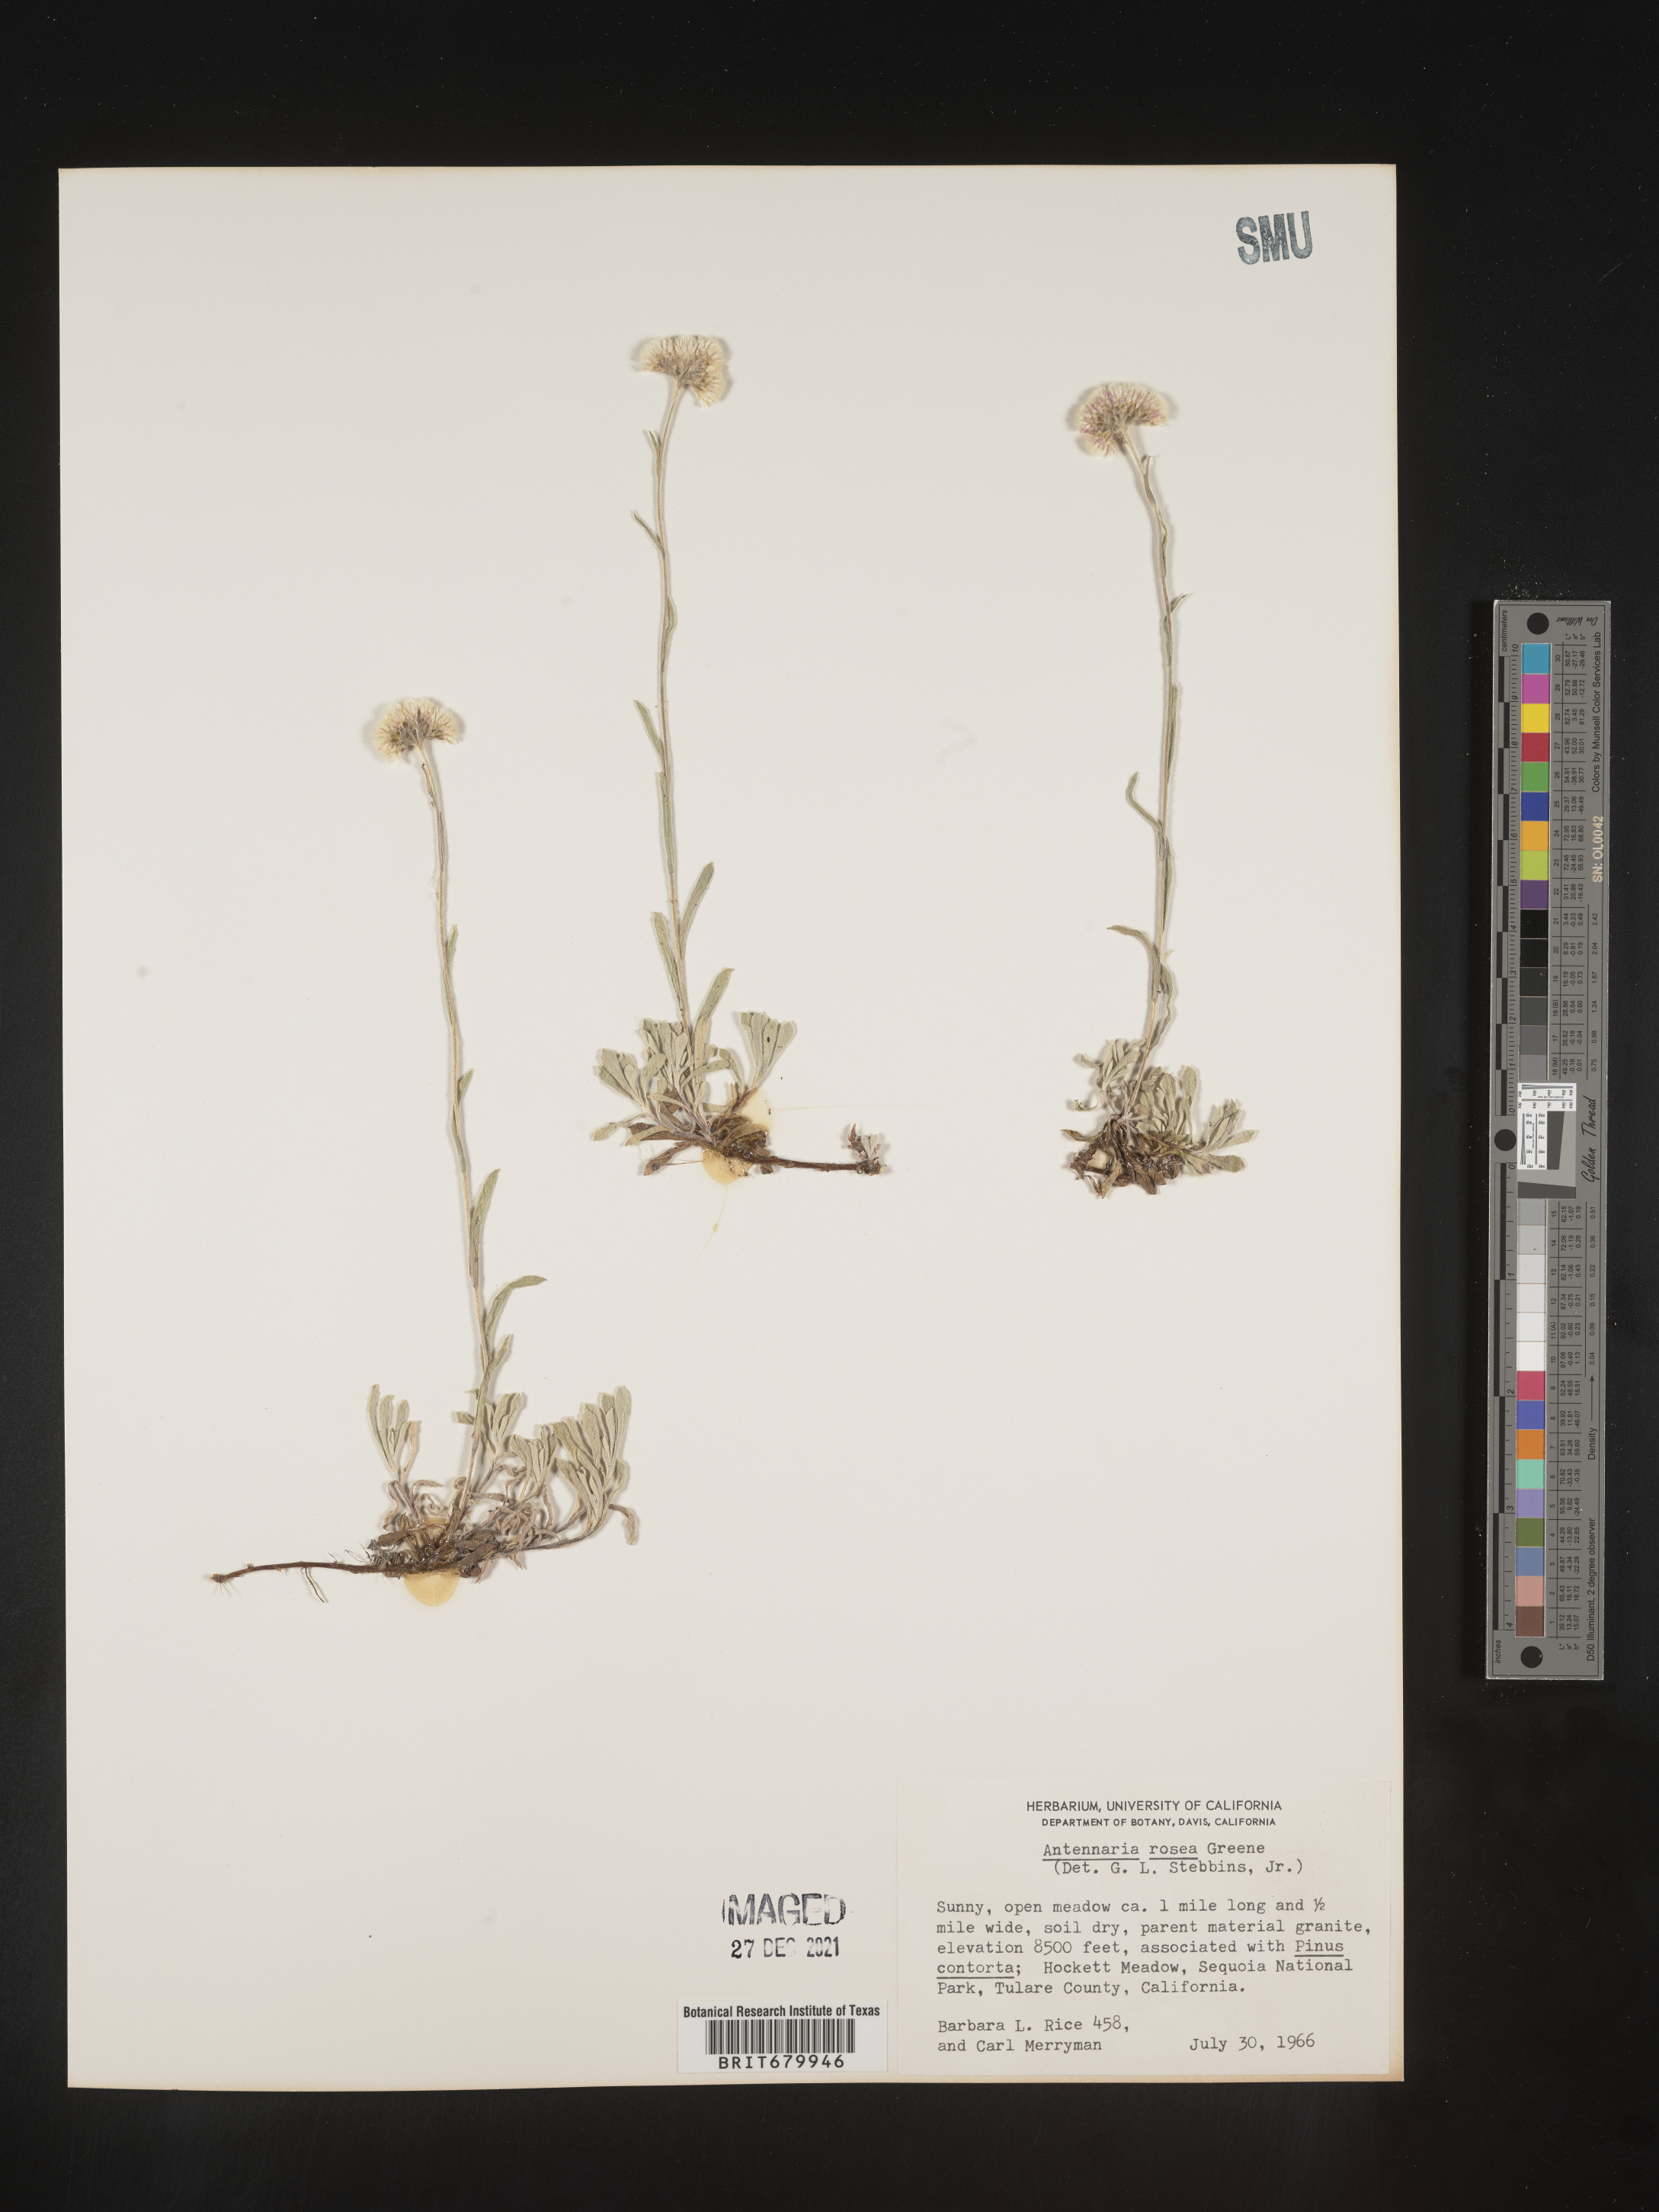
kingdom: Plantae
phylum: Tracheophyta
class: Magnoliopsida
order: Asterales
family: Asteraceae
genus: Antennaria
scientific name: Antennaria rosea
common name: Rosy pussytoes
